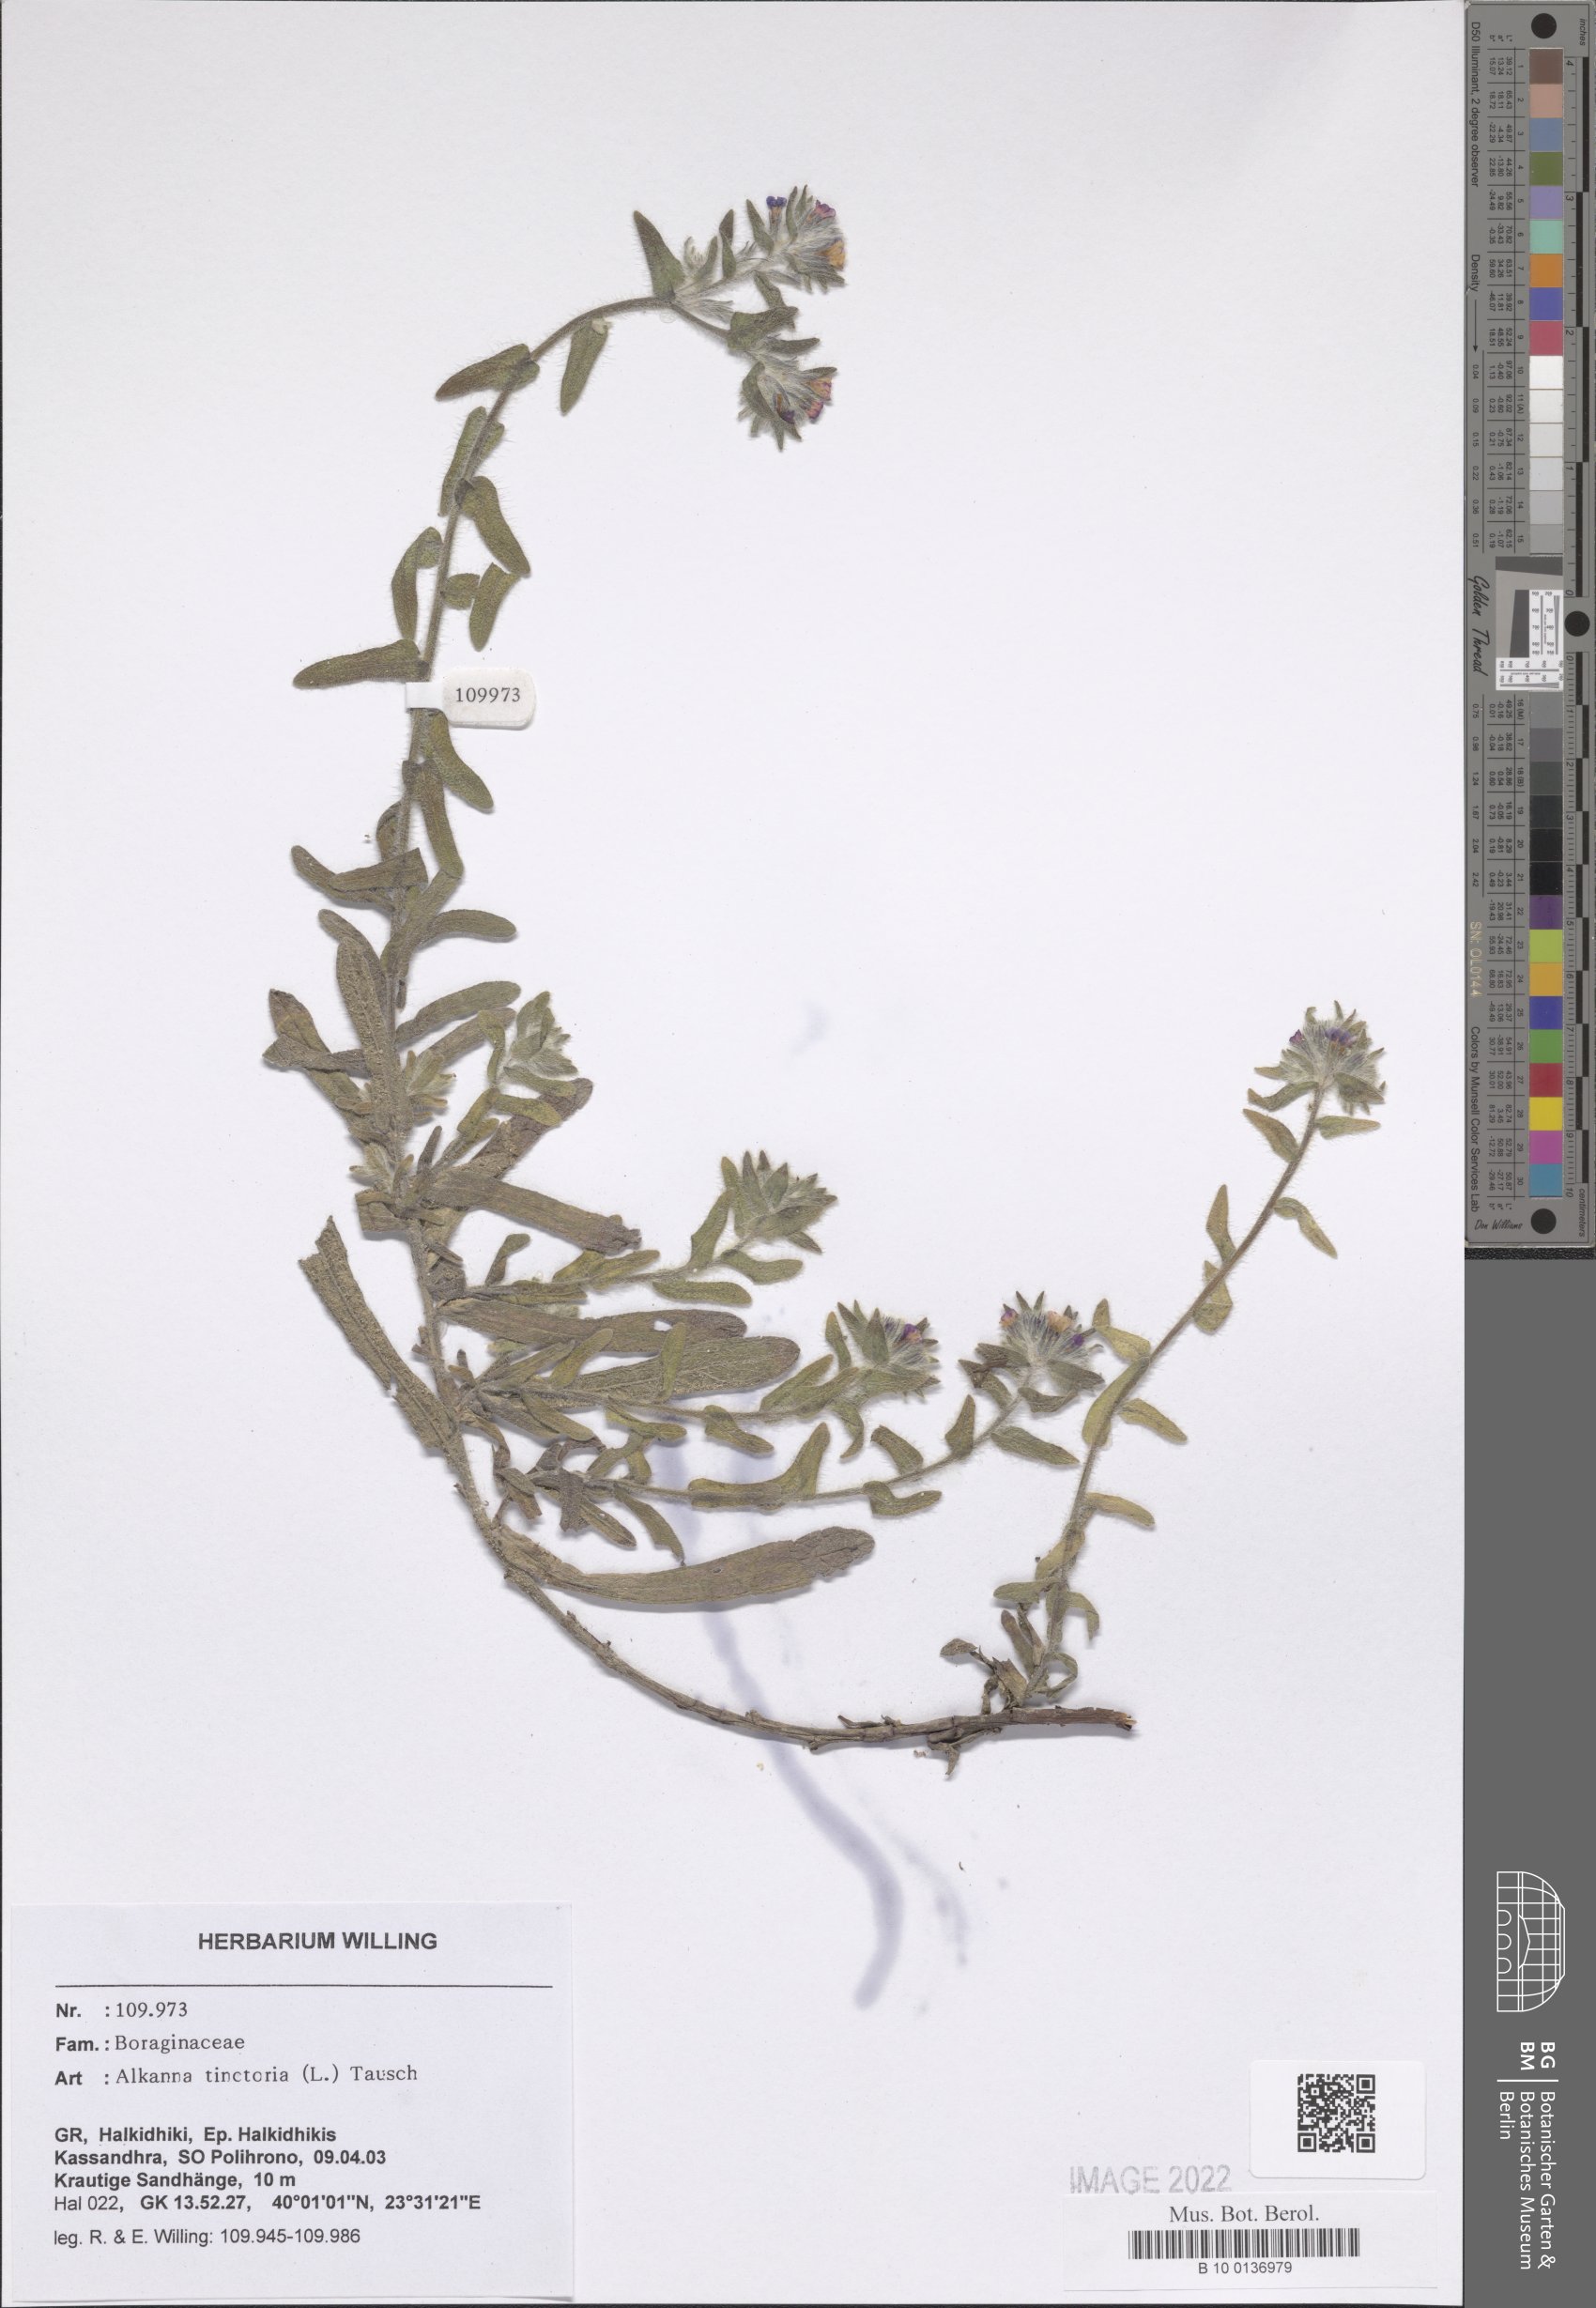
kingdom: Plantae
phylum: Tracheophyta
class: Magnoliopsida
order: Boraginales
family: Boraginaceae
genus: Alkanna
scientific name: Alkanna tinctoria
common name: Dyer's-alkanet
